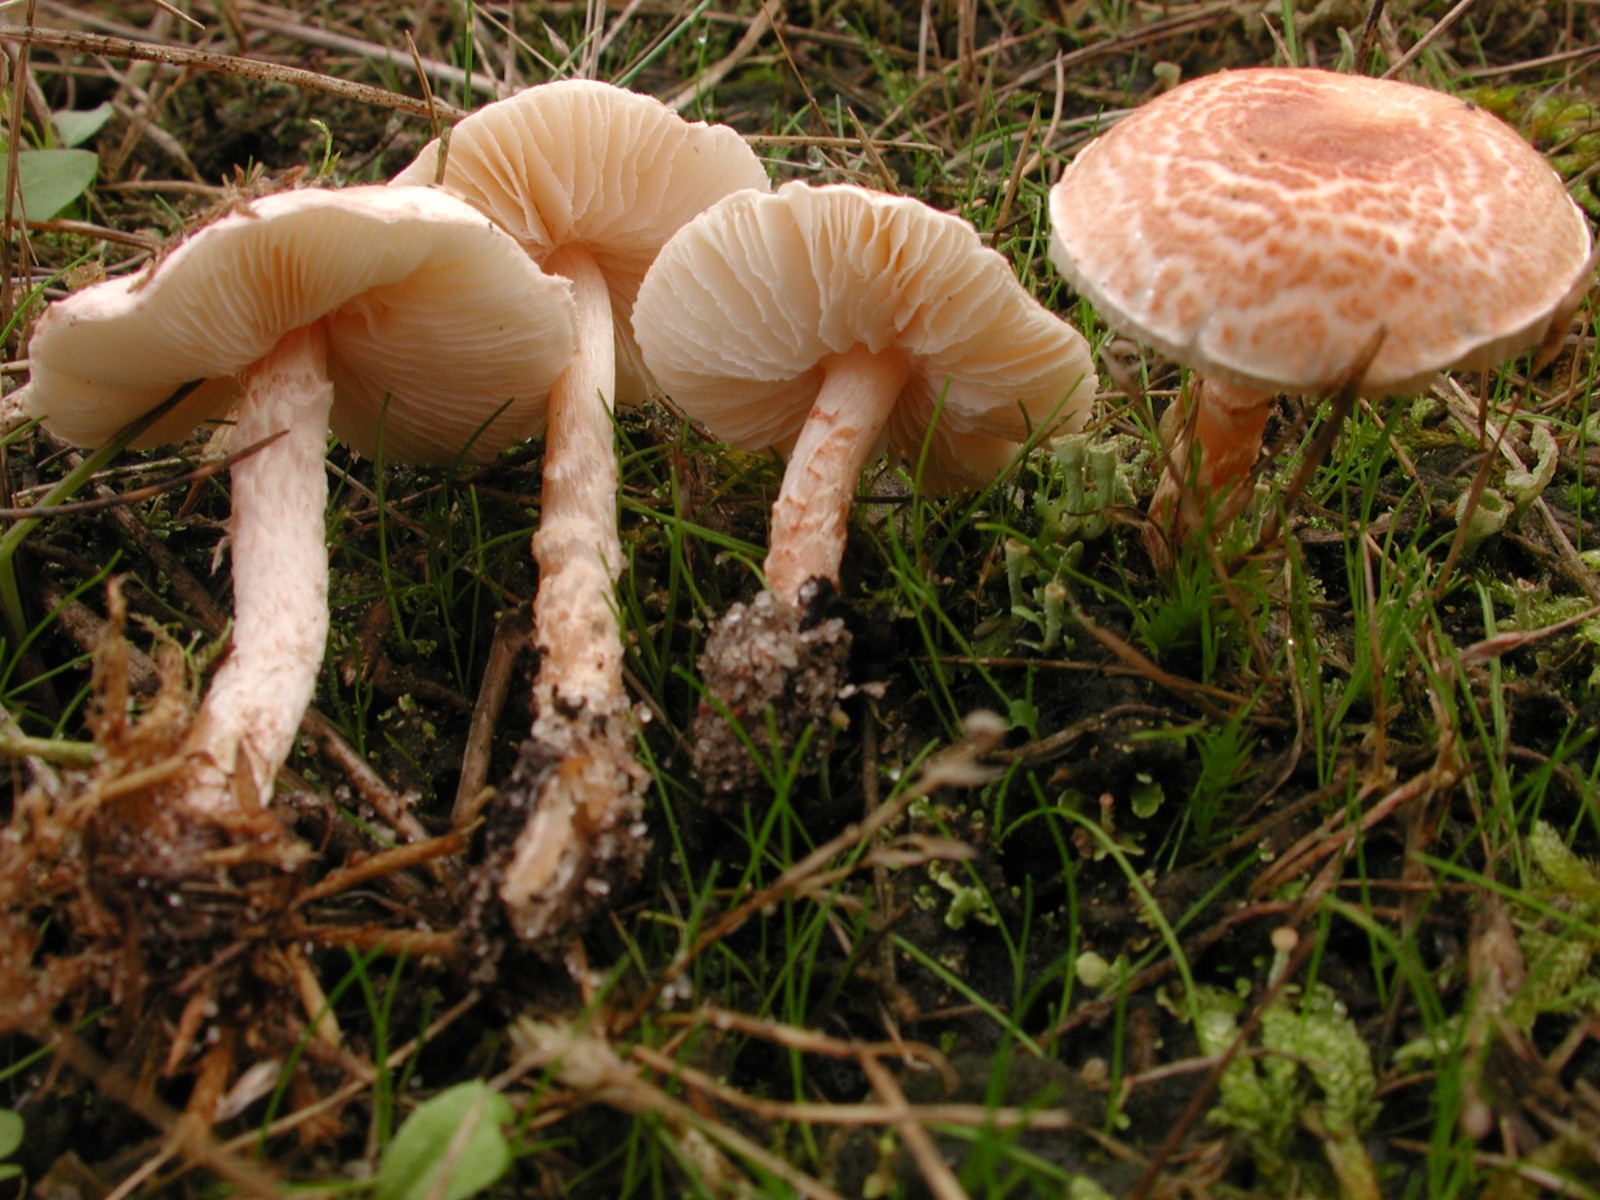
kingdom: Fungi
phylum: Basidiomycota
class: Agaricomycetes
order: Agaricales
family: Agaricaceae
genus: Lepiota
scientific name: Lepiota subincarnata
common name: kødfarvet parasolhat
